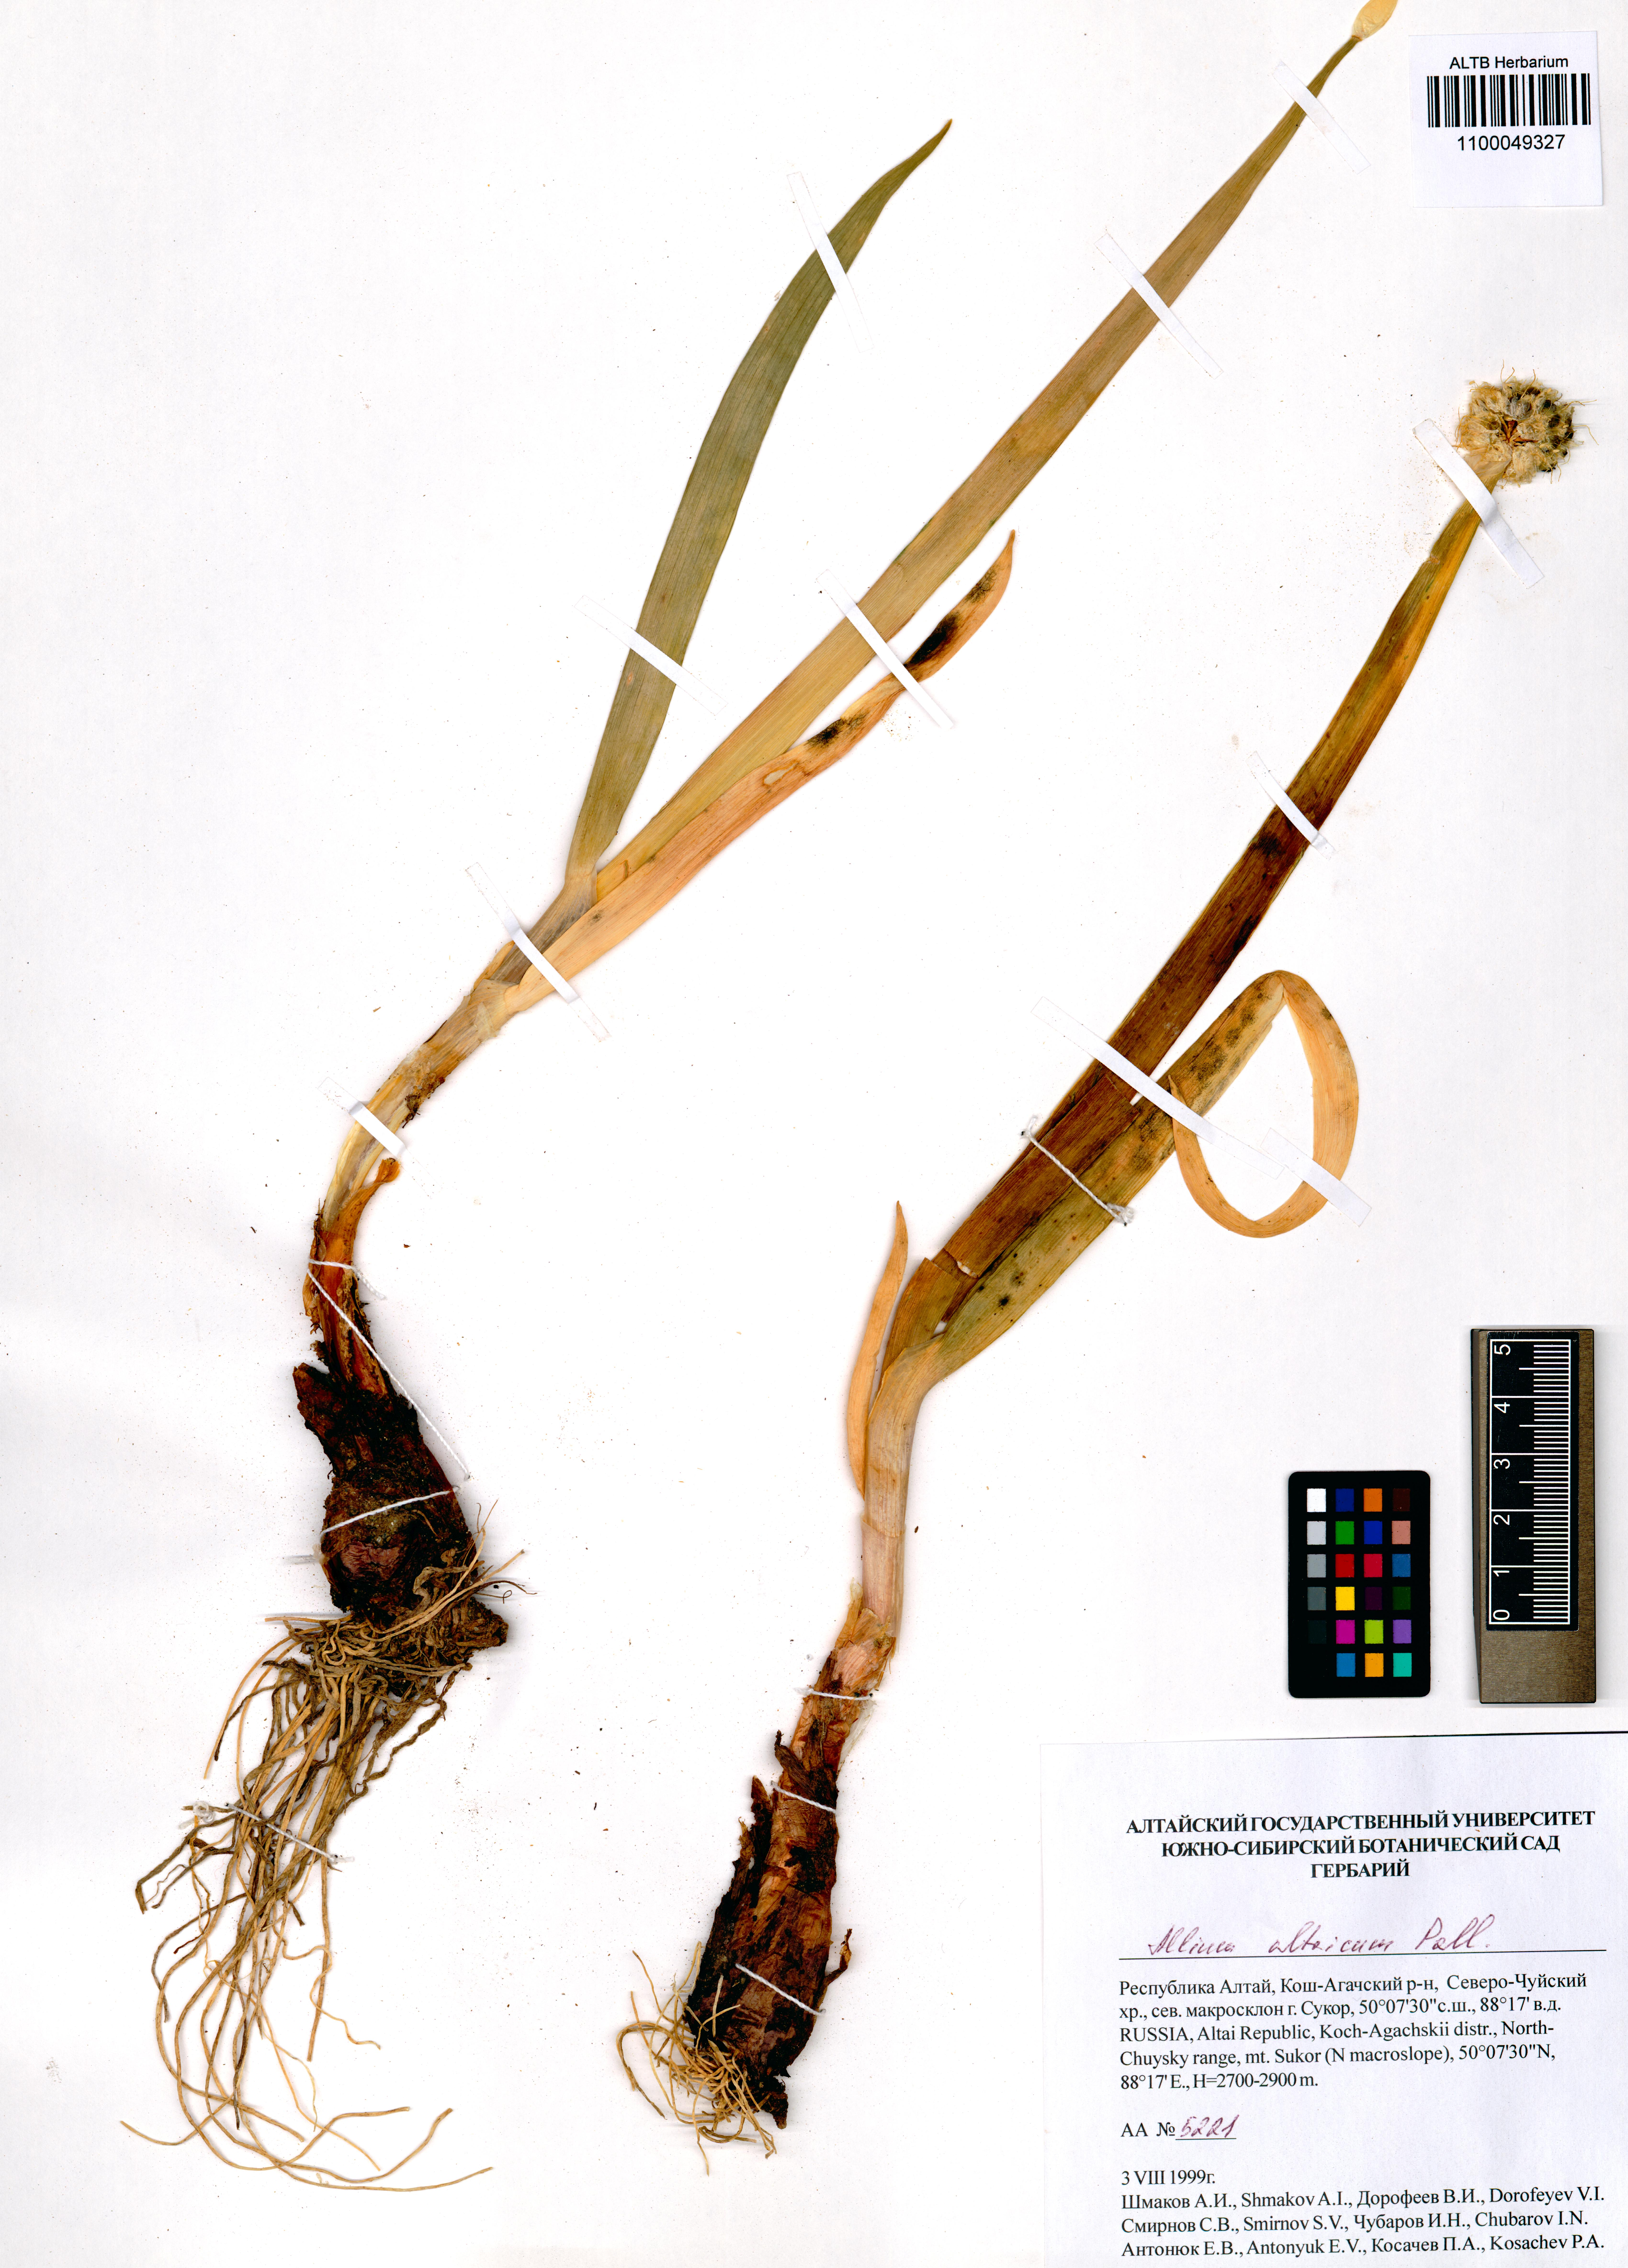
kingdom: Plantae
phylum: Tracheophyta
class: Liliopsida
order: Asparagales
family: Amaryllidaceae
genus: Allium
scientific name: Allium altaicum
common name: Altai onion
